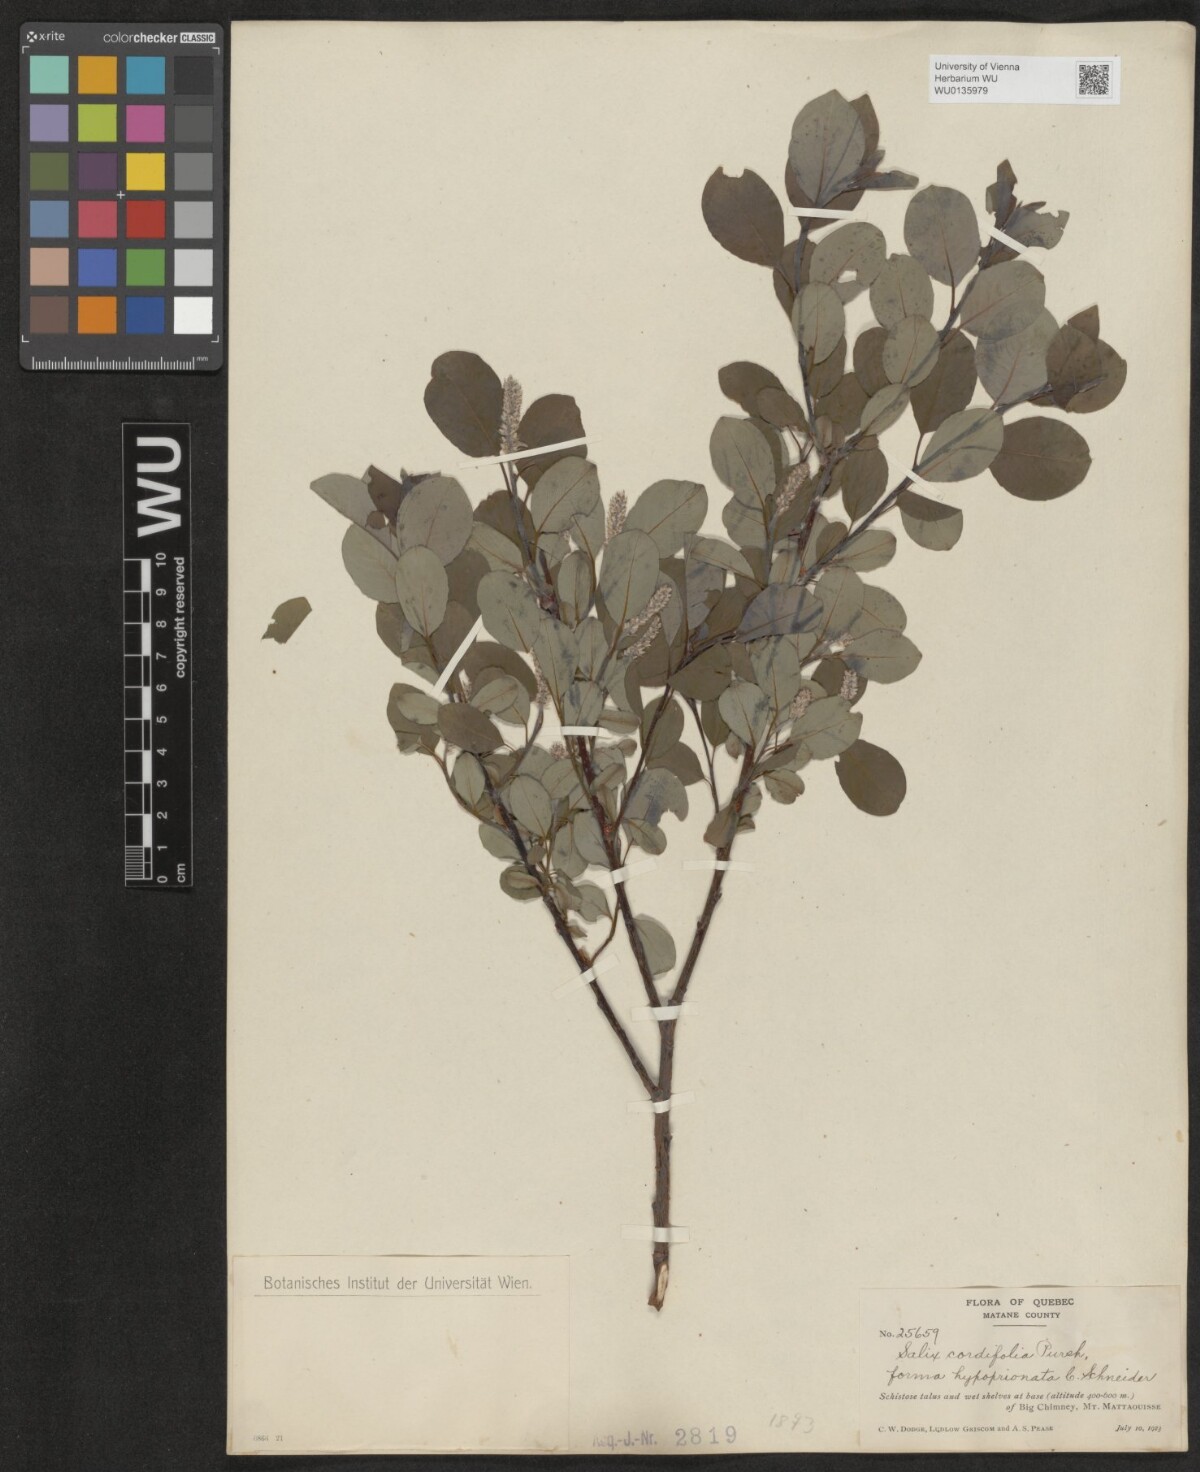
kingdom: Plantae
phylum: Tracheophyta
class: Magnoliopsida
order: Malpighiales
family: Salicaceae
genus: Salix
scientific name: Salix
